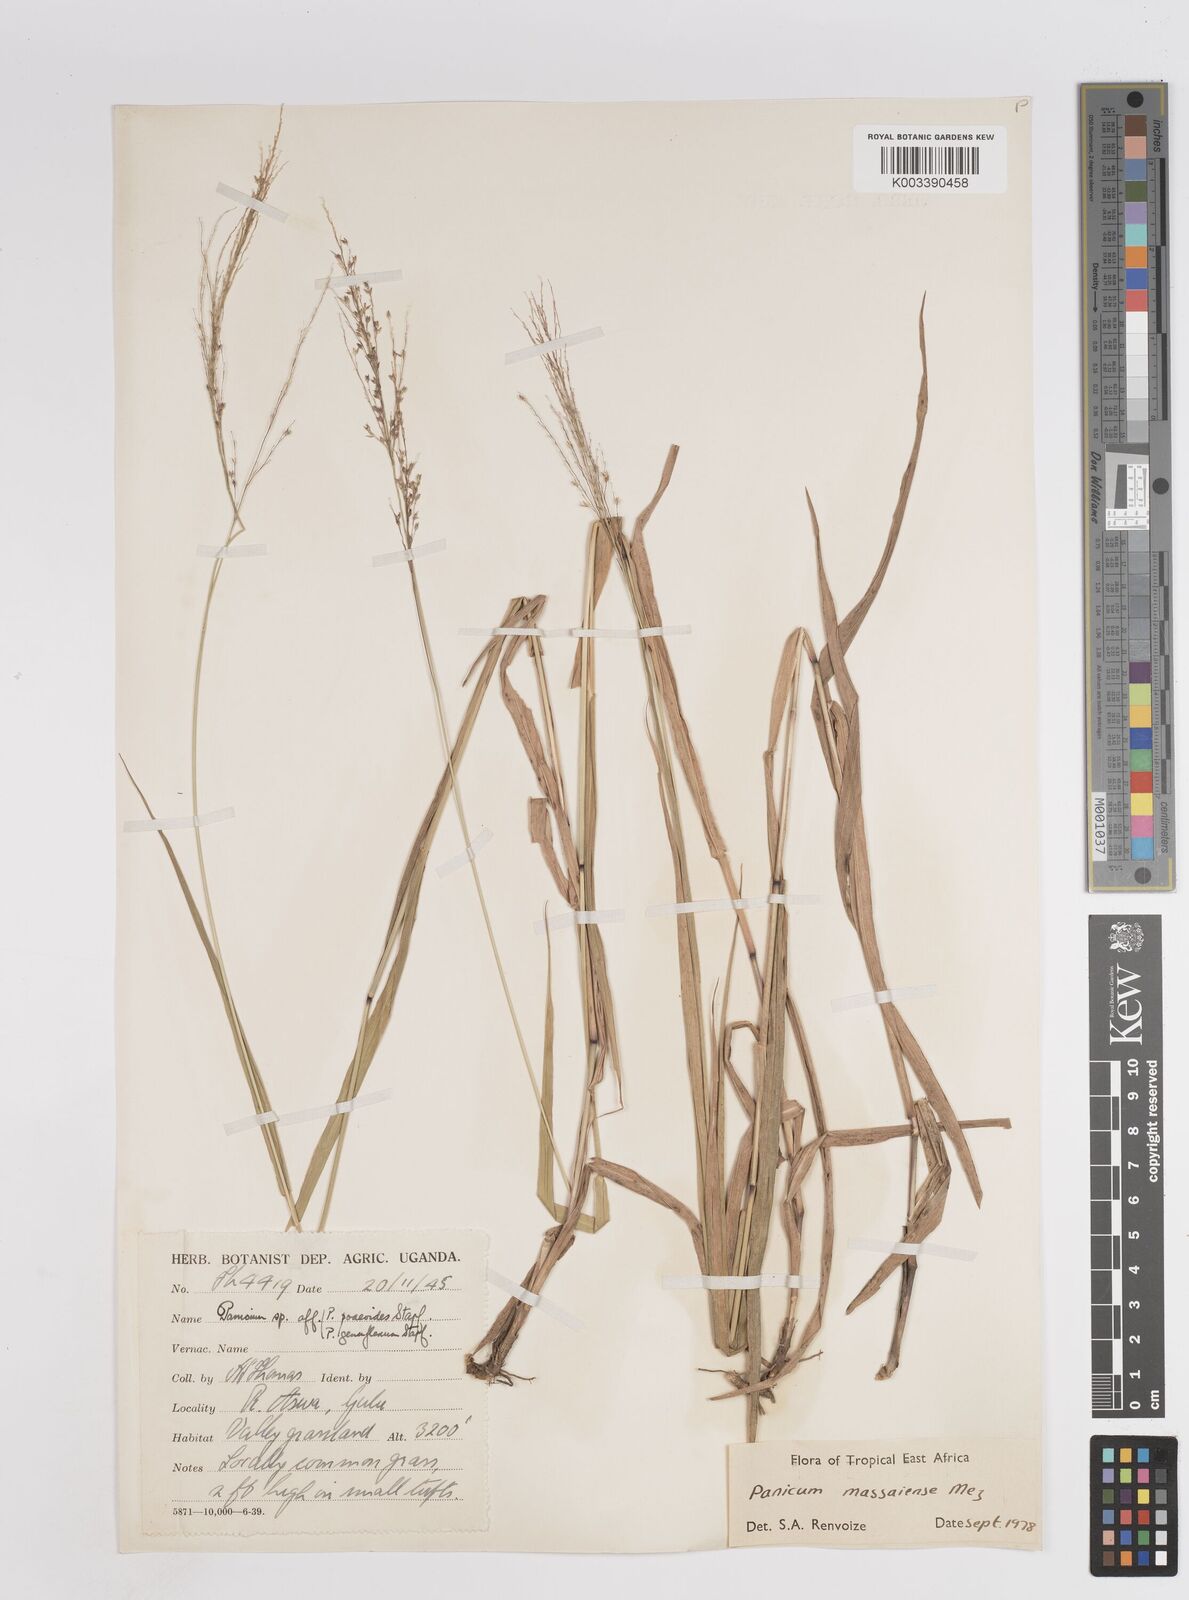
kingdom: Plantae
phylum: Tracheophyta
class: Liliopsida
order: Poales
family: Poaceae
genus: Panicum
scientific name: Panicum massaiense
